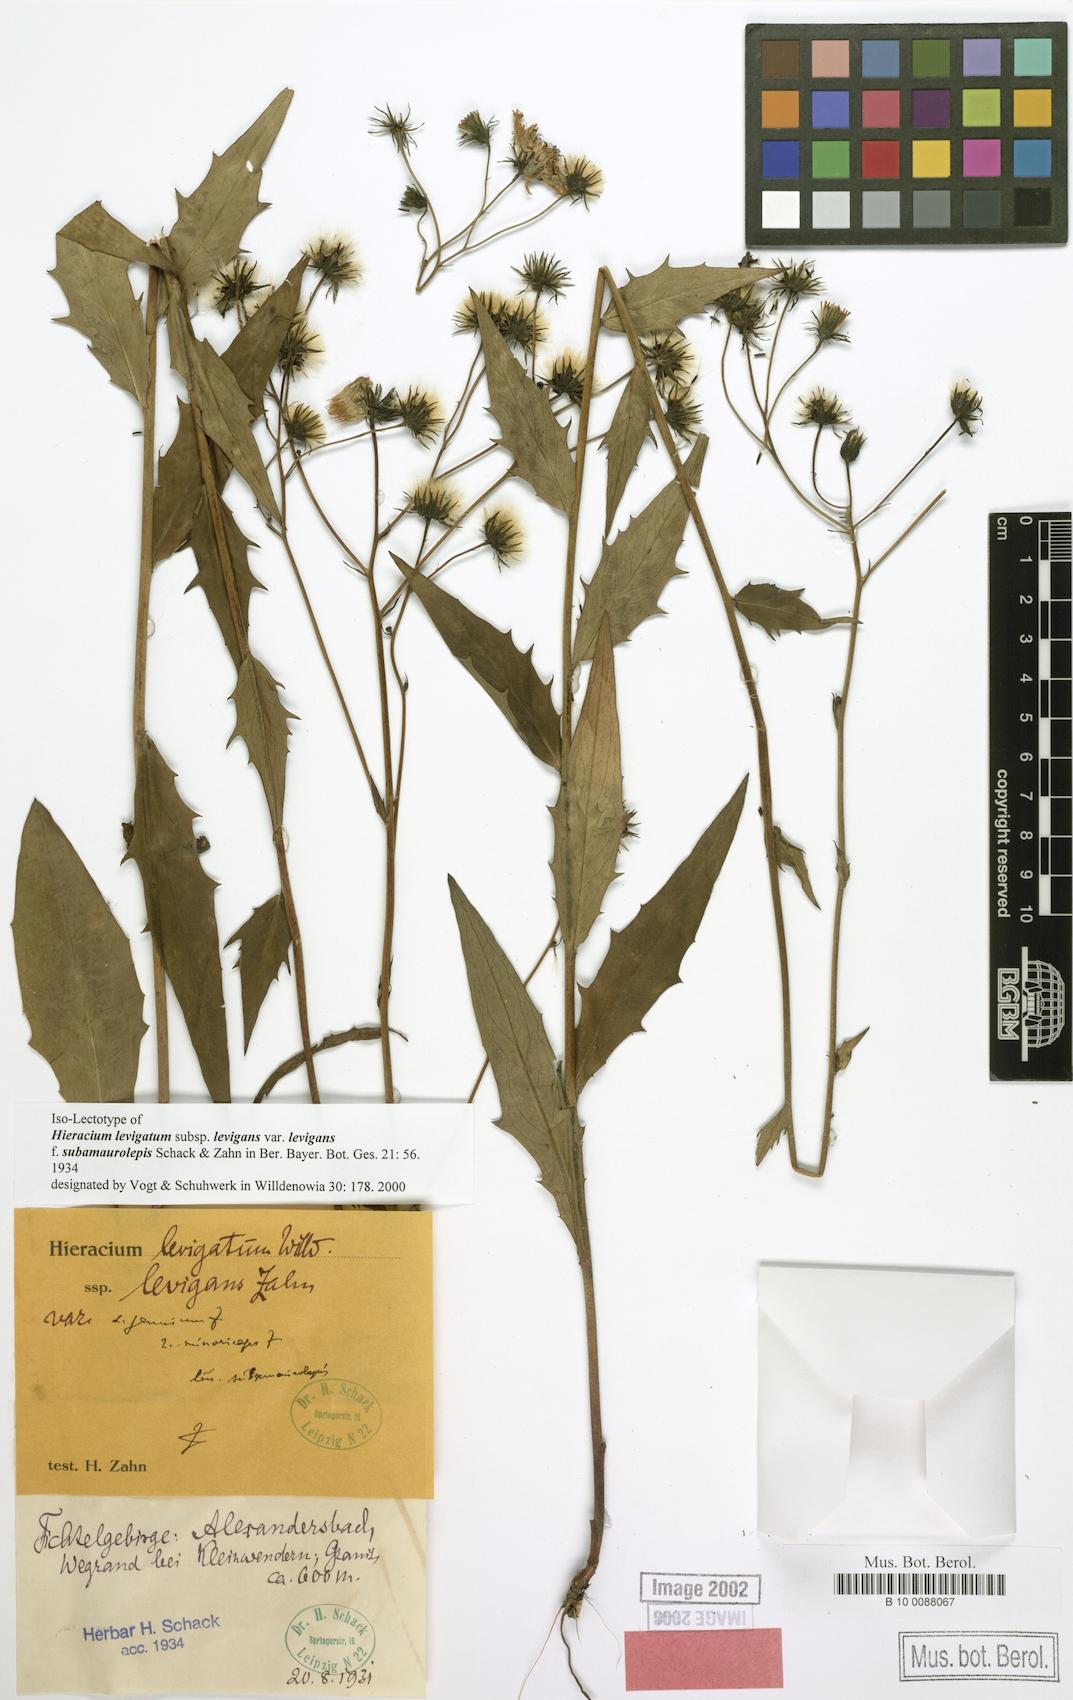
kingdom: Plantae
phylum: Tracheophyta
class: Magnoliopsida
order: Asterales
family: Asteraceae
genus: Hieracium
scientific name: Hieracium laevigatum
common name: Smooth hawkweed
